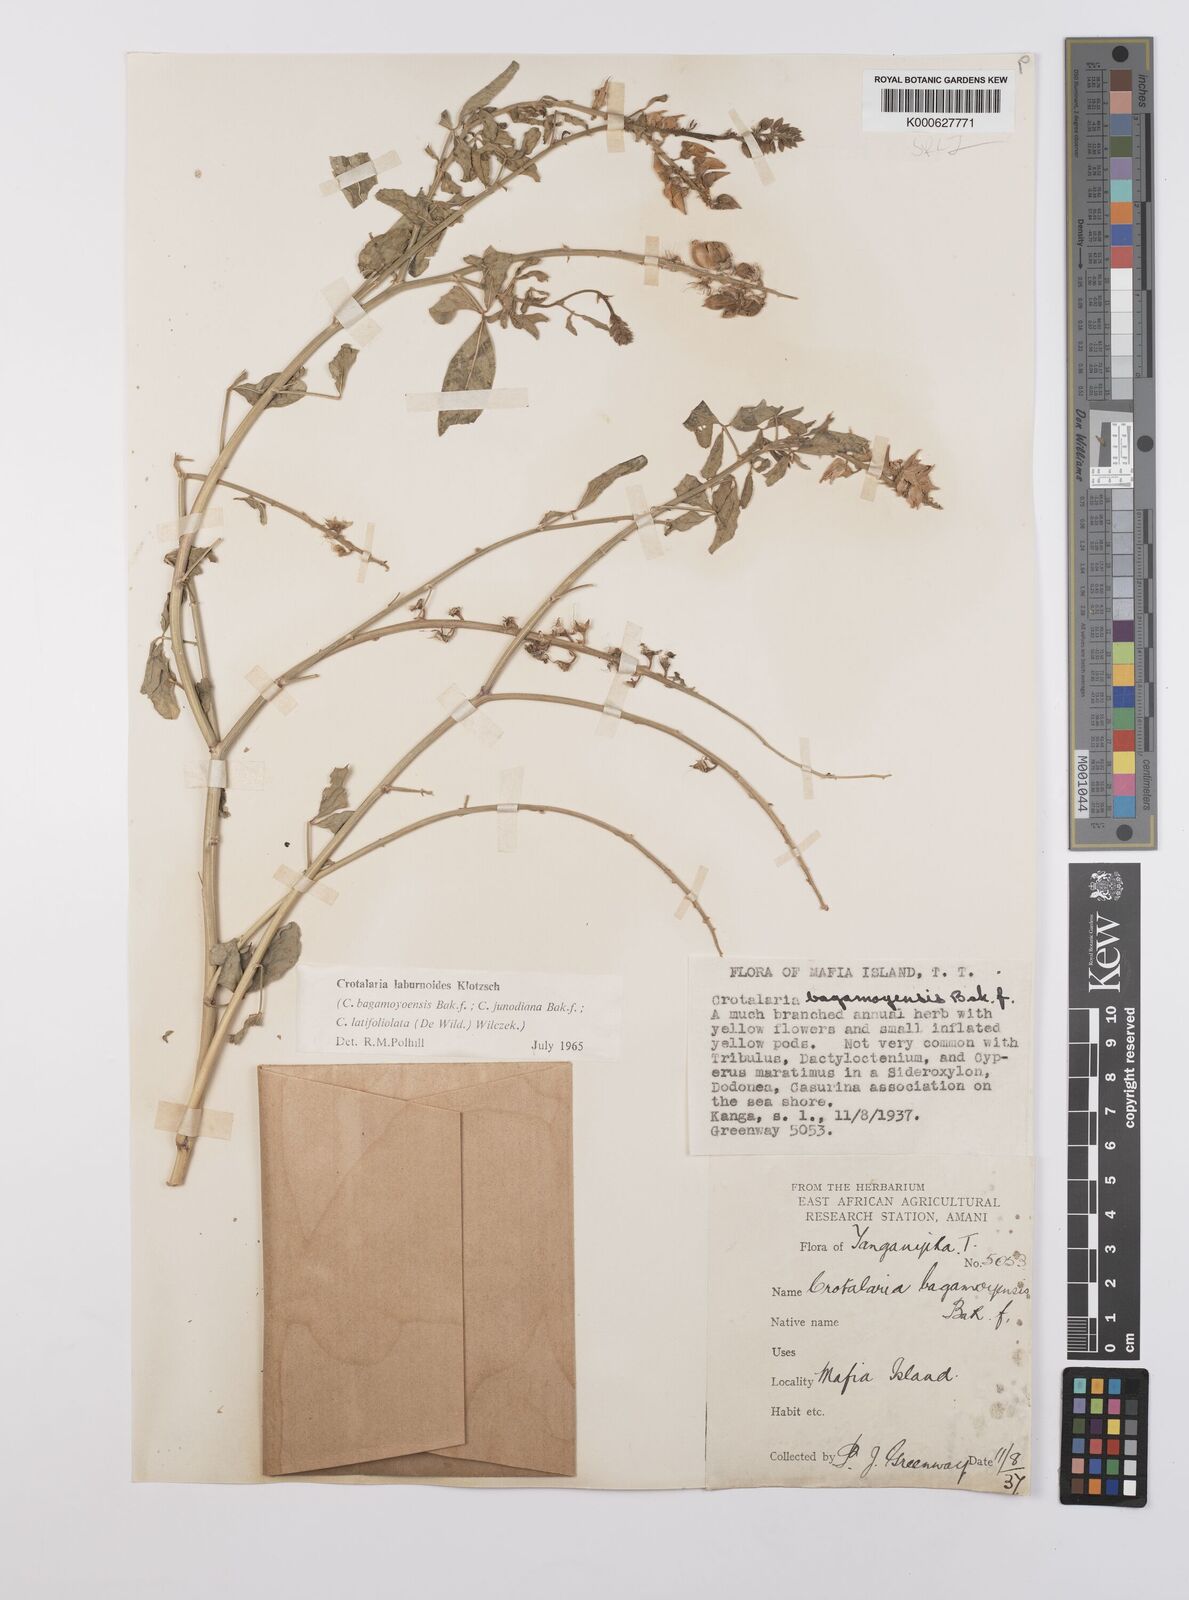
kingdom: Plantae
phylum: Tracheophyta
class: Magnoliopsida
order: Fabales
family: Fabaceae
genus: Crotalaria
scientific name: Crotalaria laburnoides
